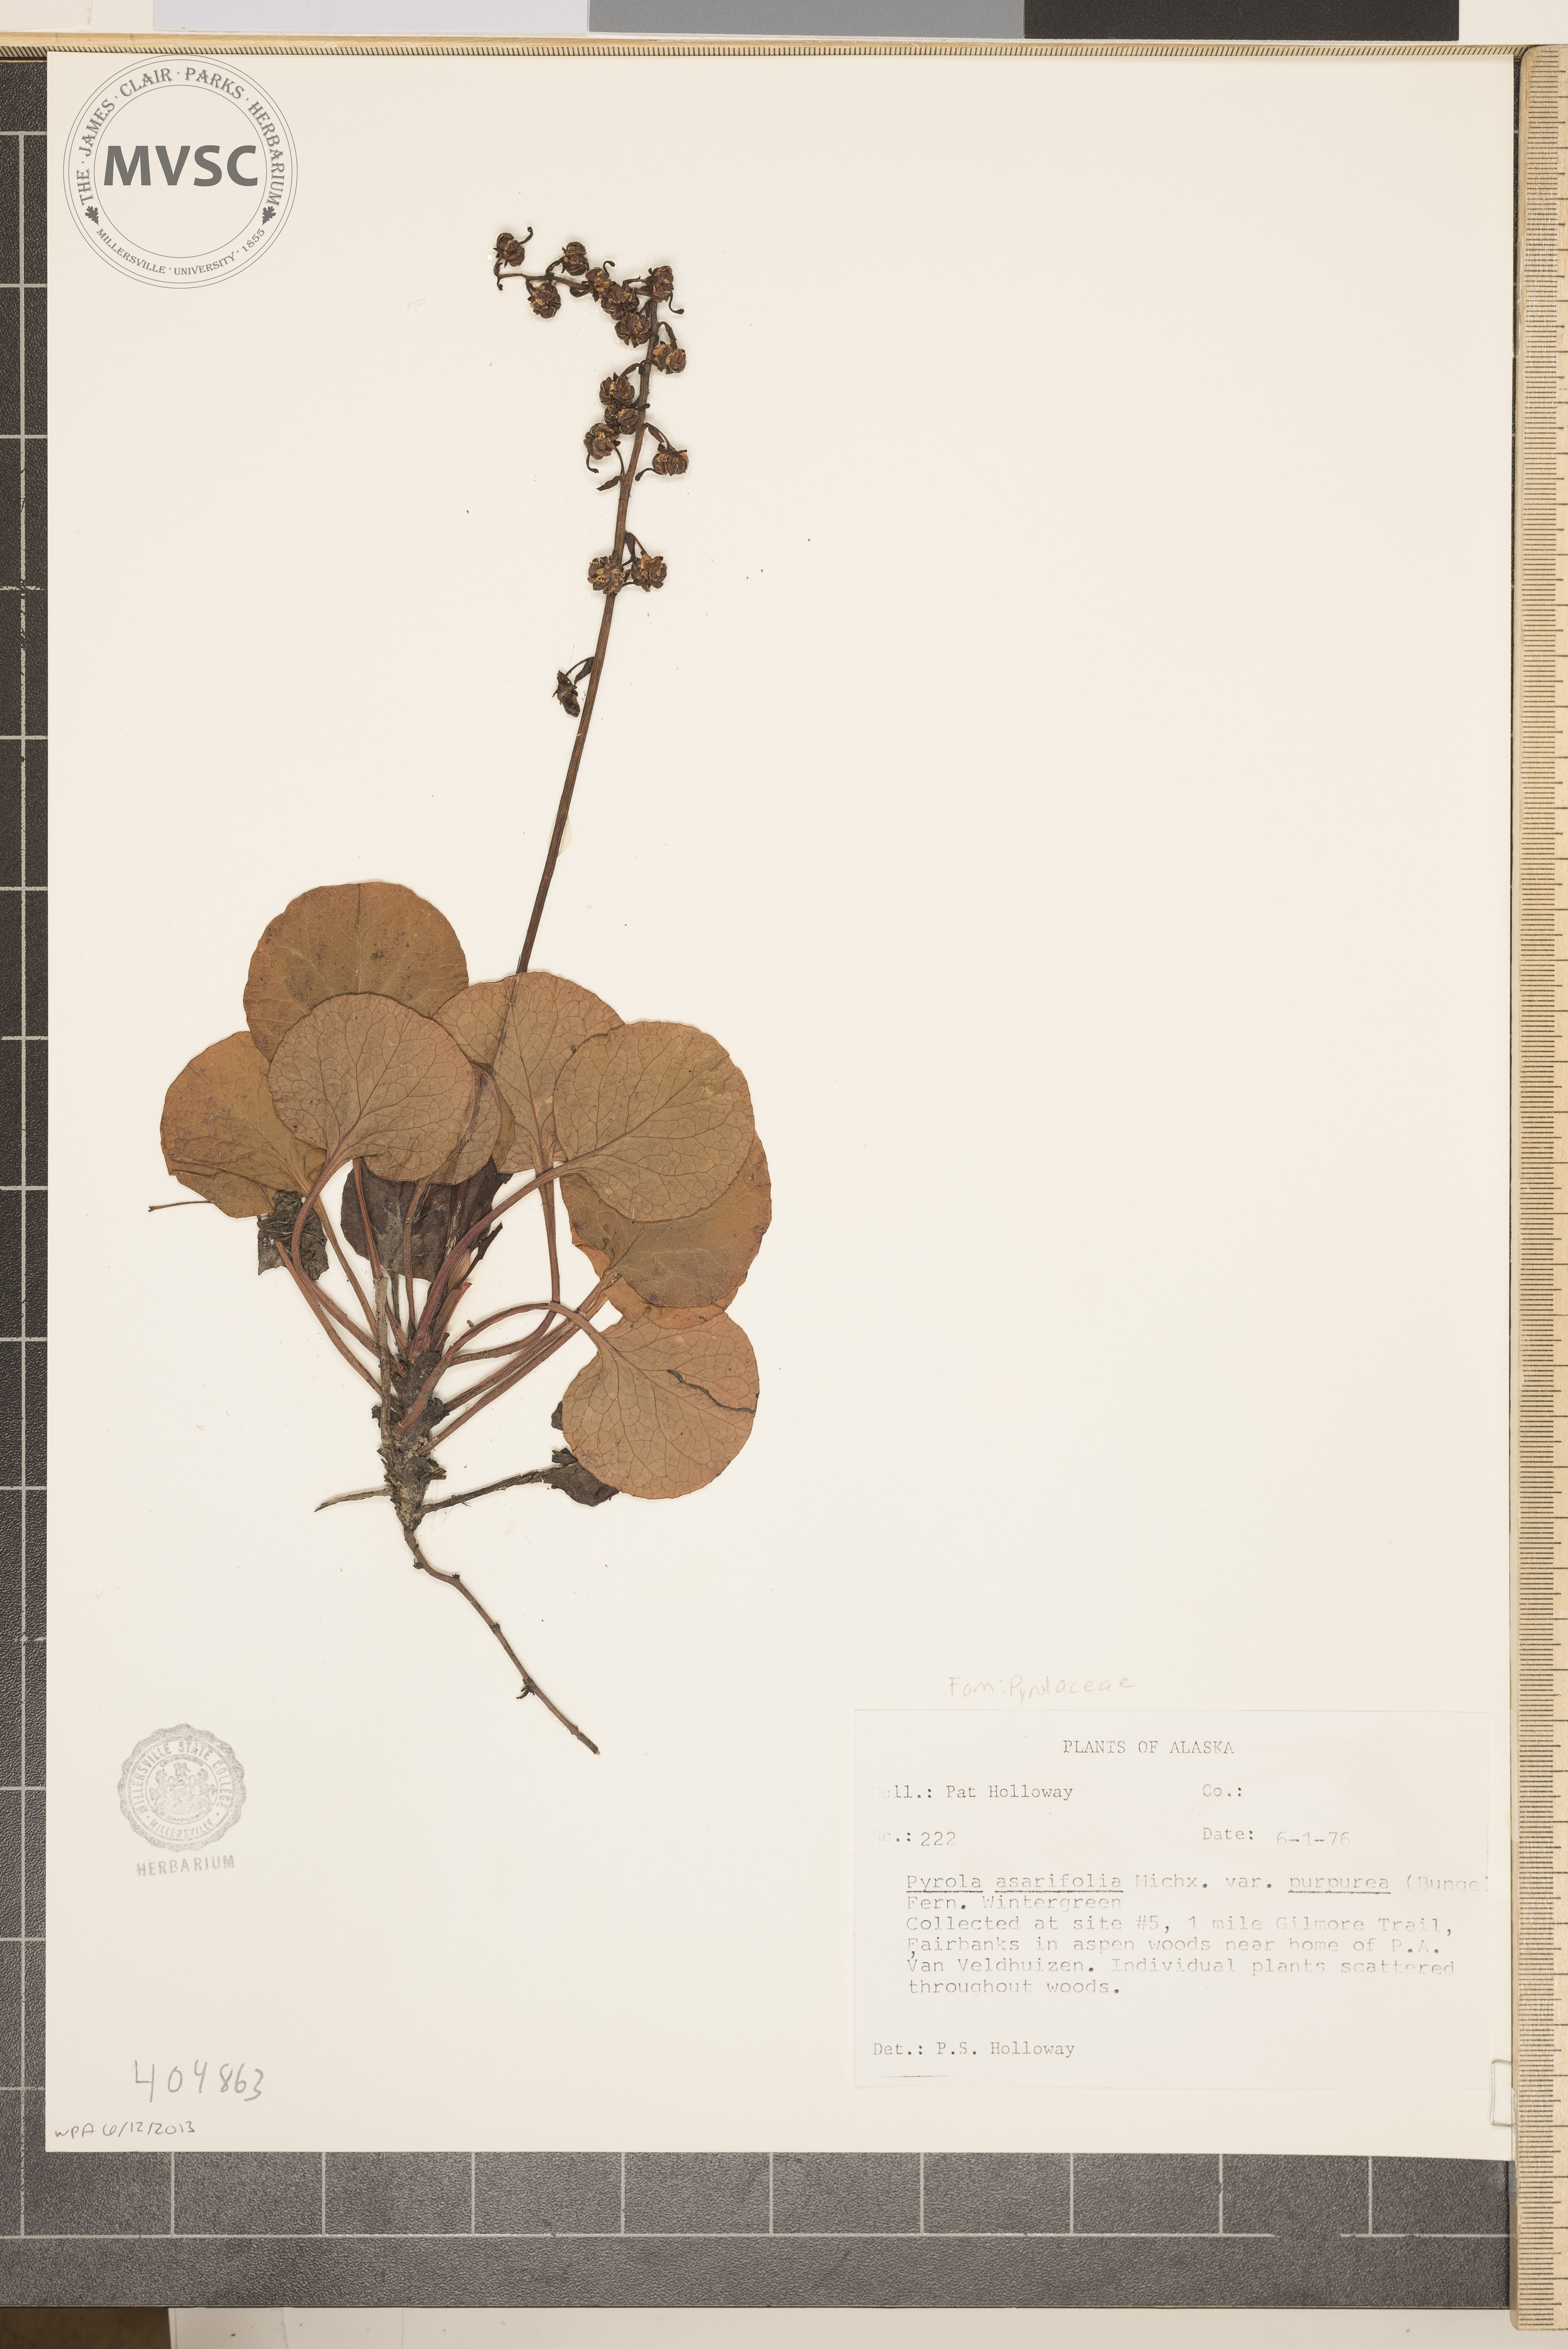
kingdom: Plantae
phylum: Tracheophyta
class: Magnoliopsida
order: Ericales
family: Ericaceae
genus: Pyrola
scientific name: Pyrola asarifolia
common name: Bog wintergreen
